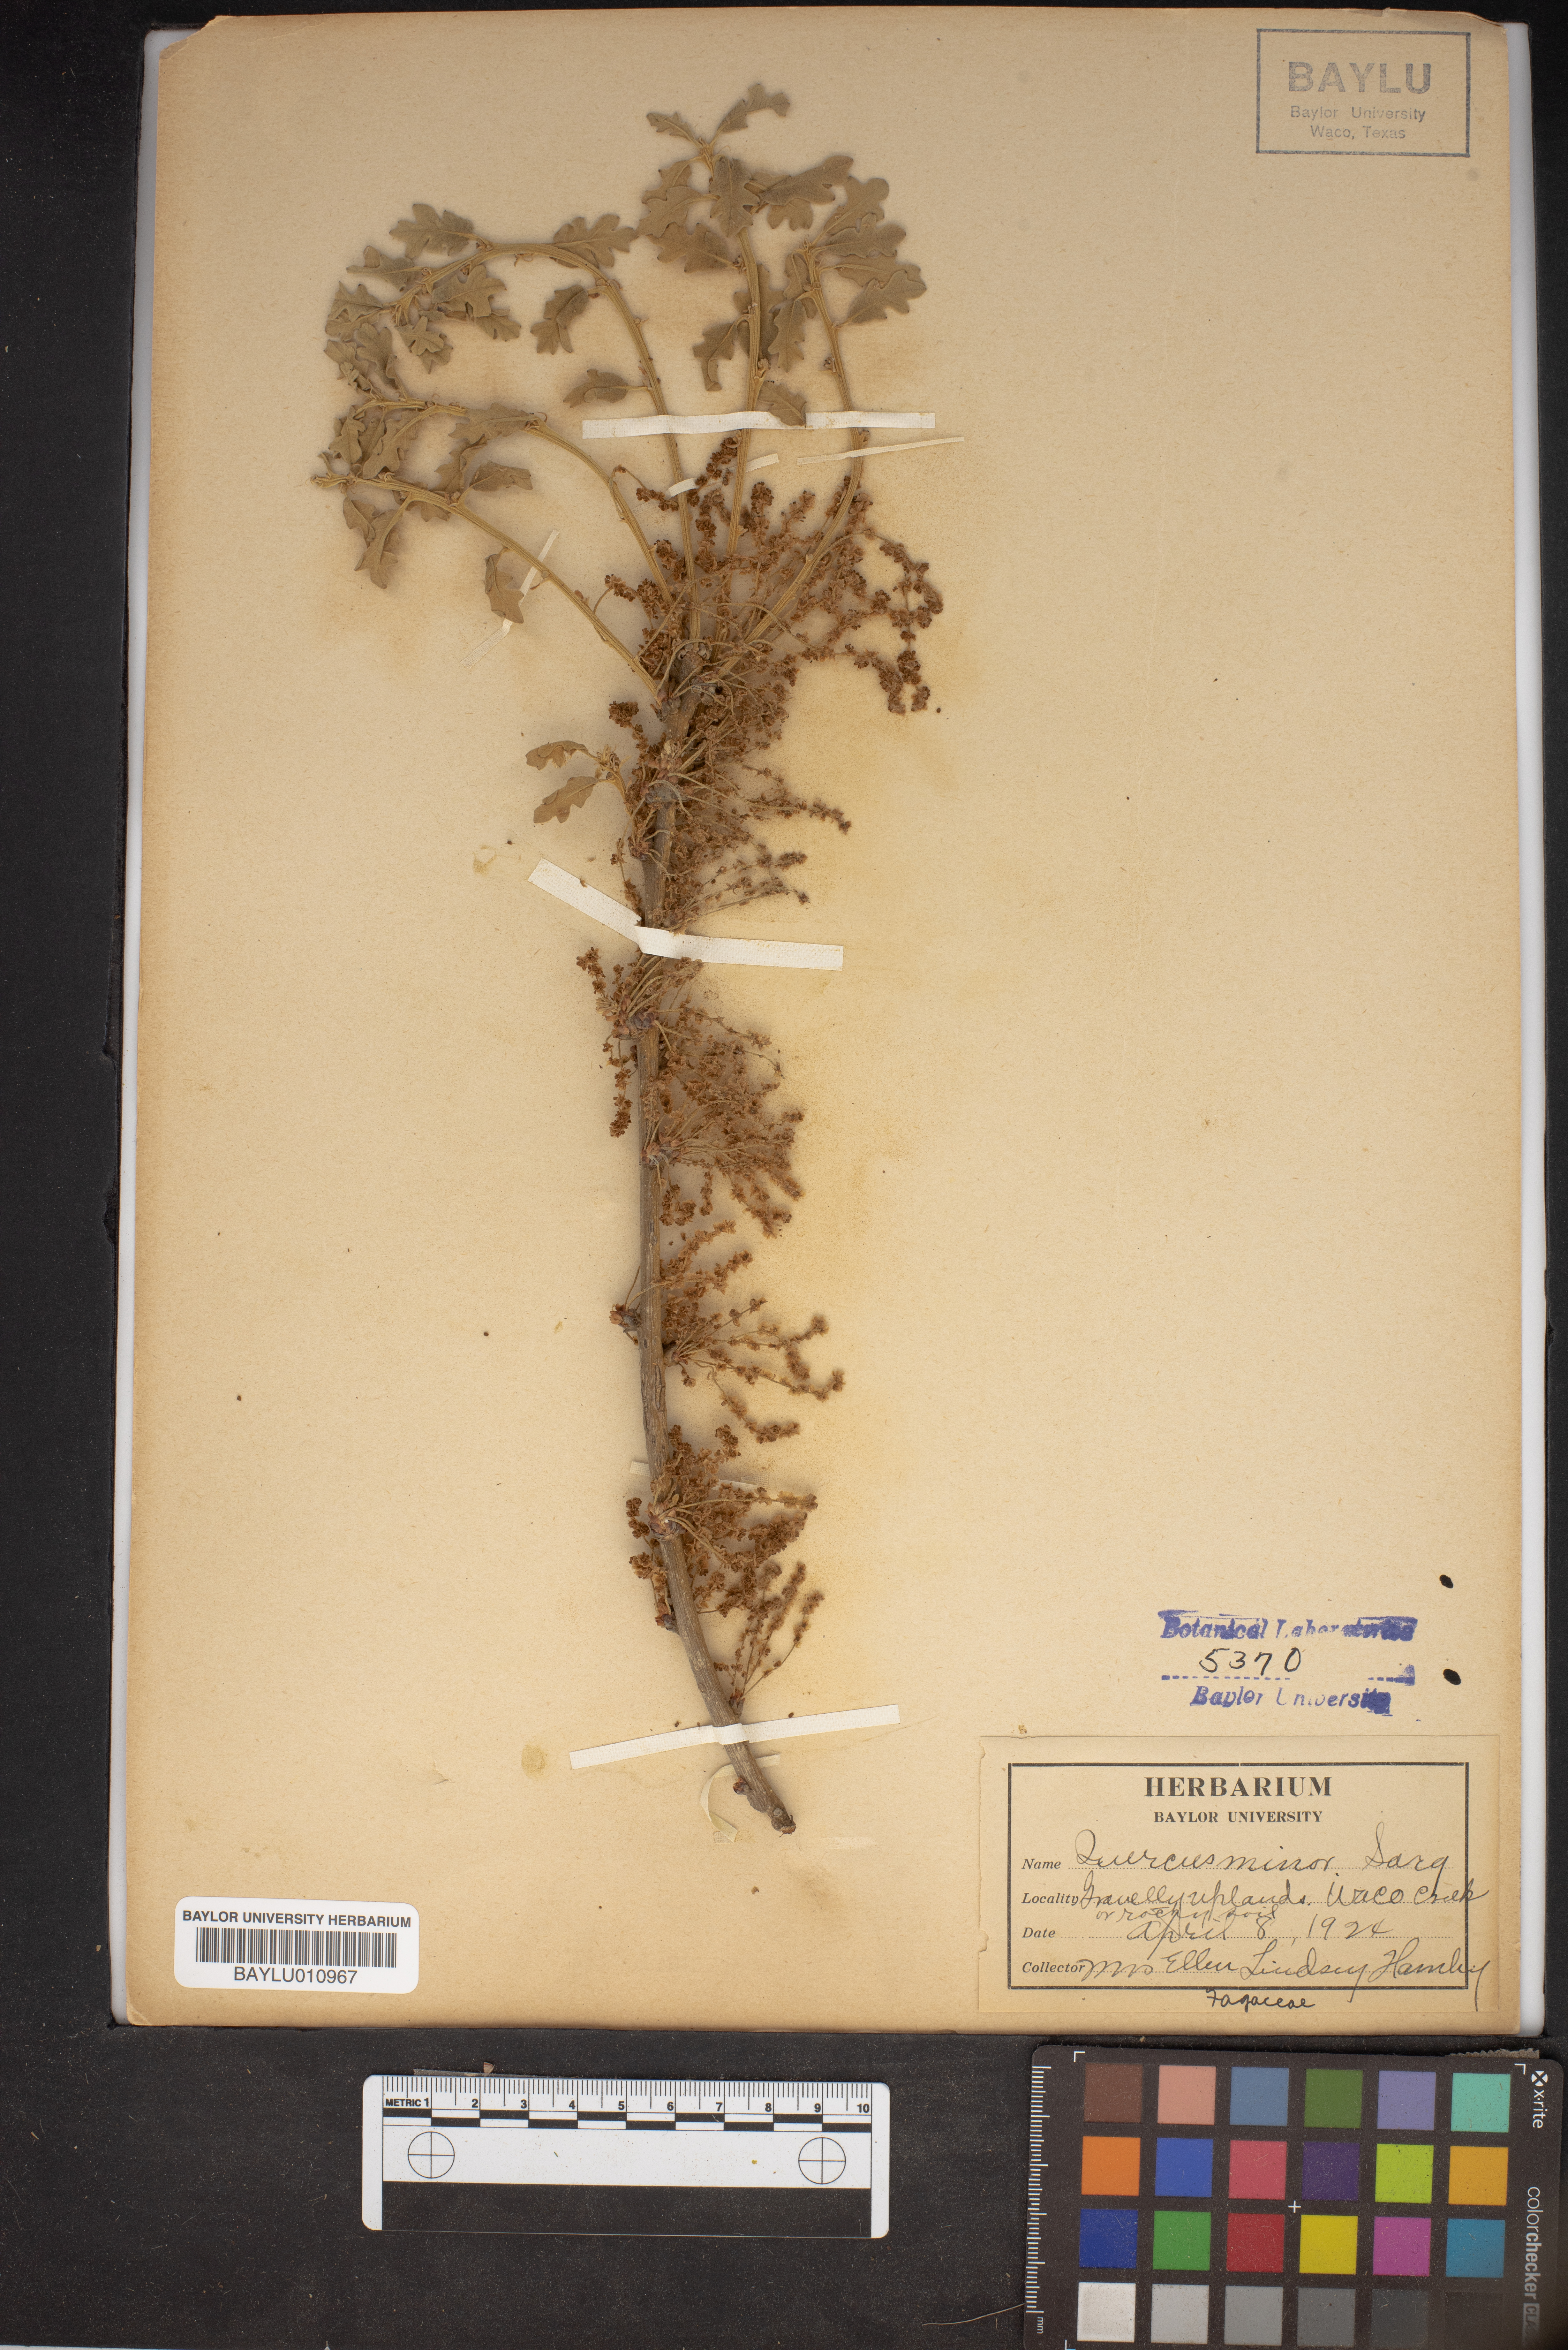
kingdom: Plantae
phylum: Tracheophyta
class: Magnoliopsida
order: Fagales
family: Fagaceae
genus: Quercus
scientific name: Quercus stellata
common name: Post oak
